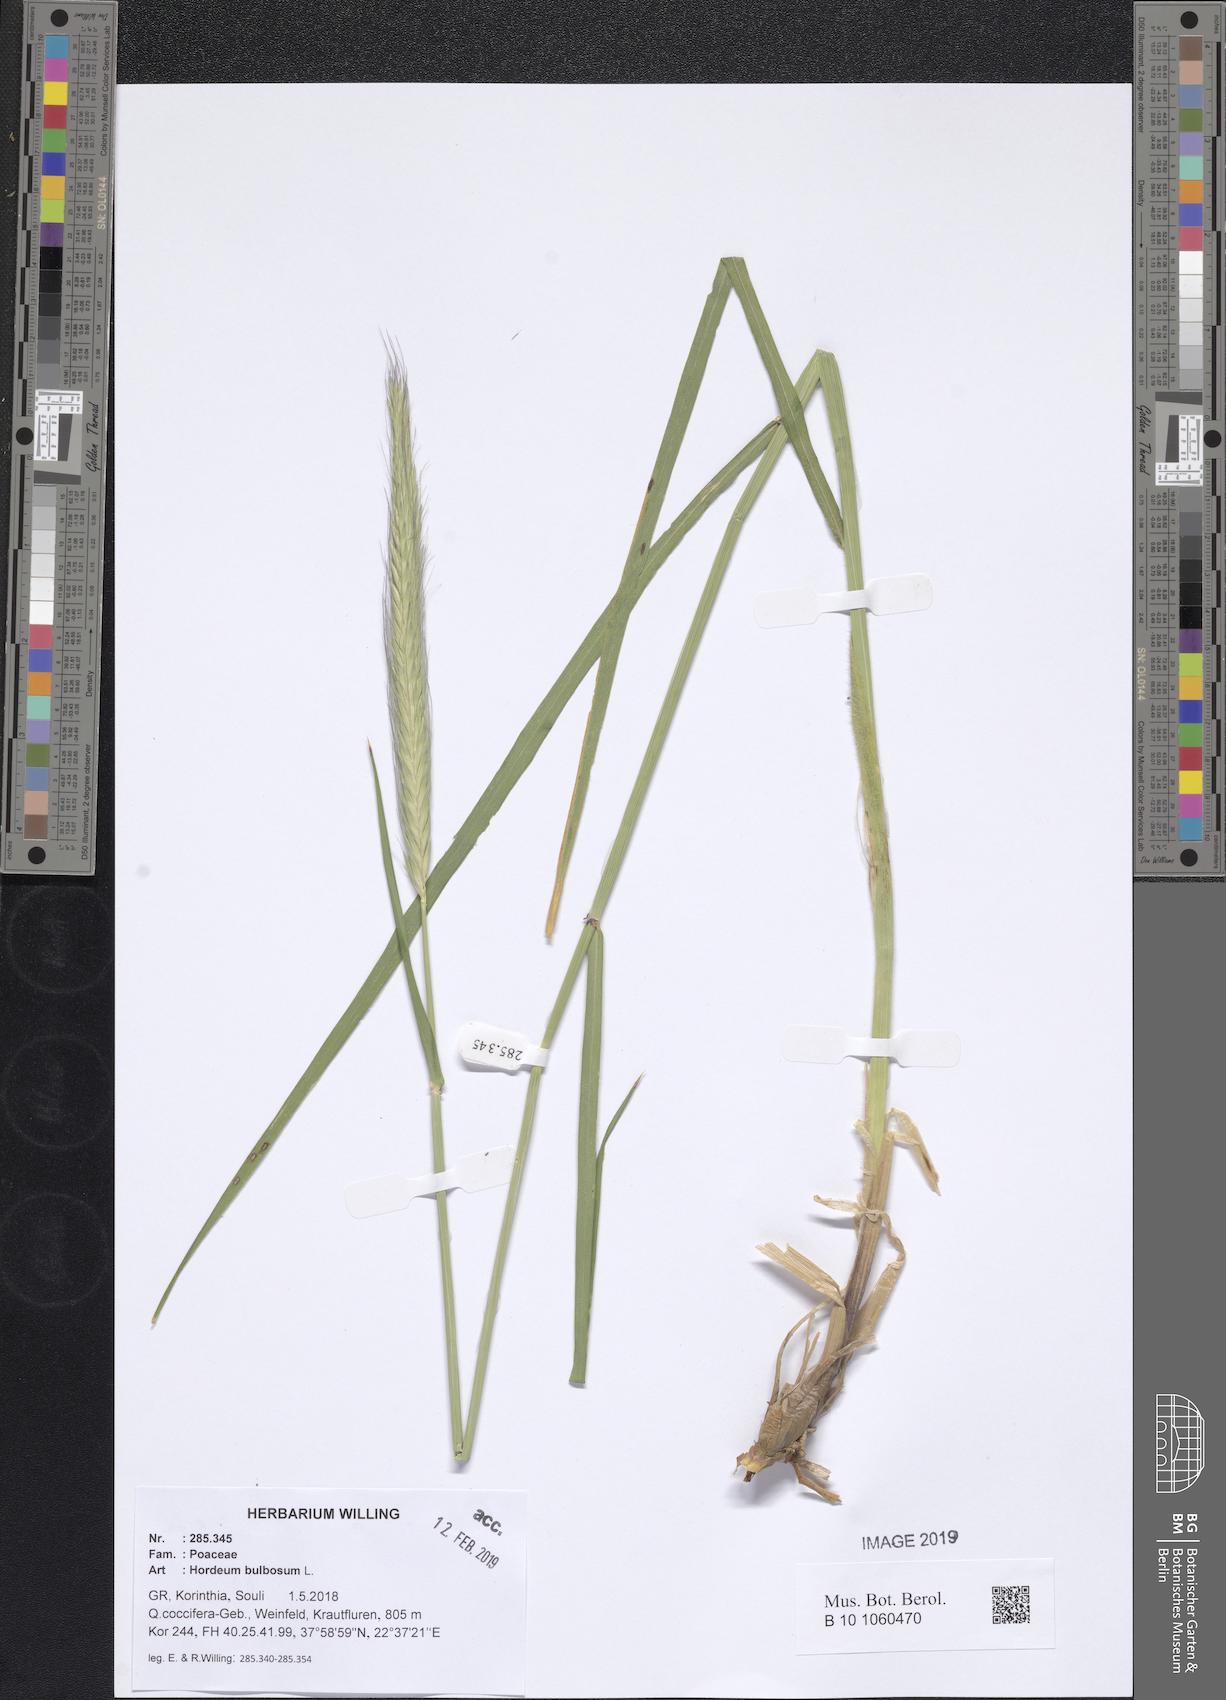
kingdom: Plantae
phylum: Tracheophyta
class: Liliopsida
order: Poales
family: Poaceae
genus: Hordeum
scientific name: Hordeum bulbosum
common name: Bulbous barley
